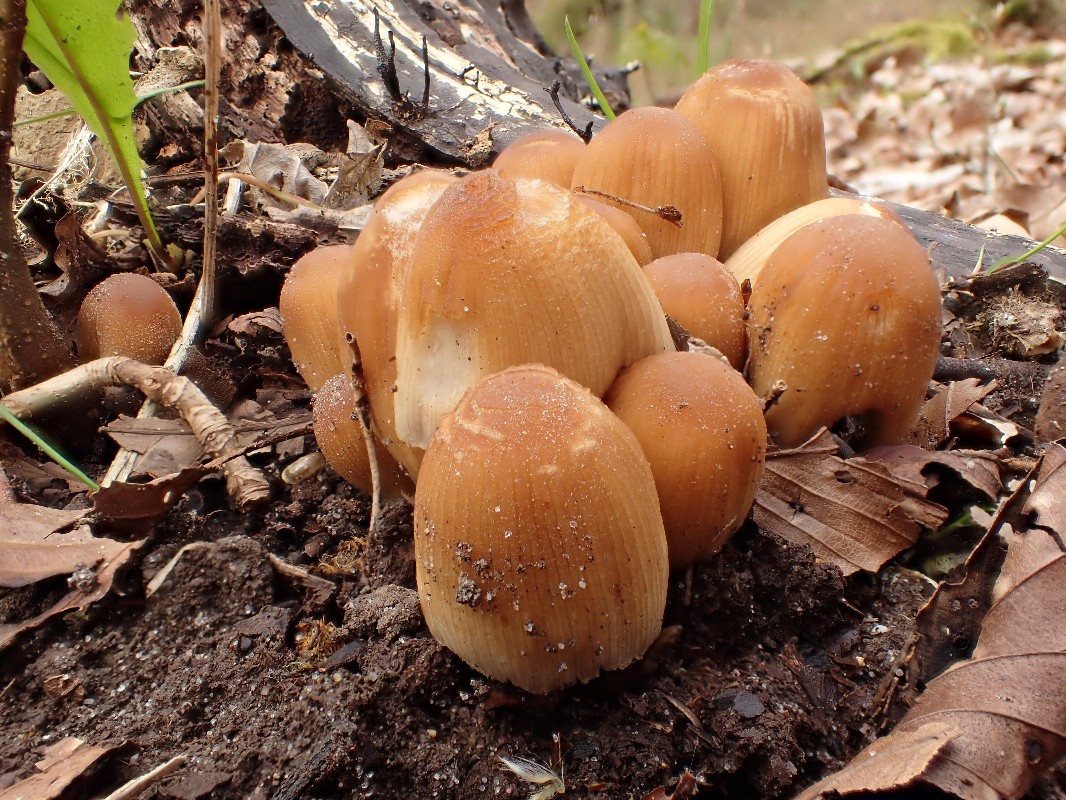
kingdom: Fungi
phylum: Basidiomycota
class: Agaricomycetes
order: Agaricales
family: Psathyrellaceae
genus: Coprinellus
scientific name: Coprinellus micaceus
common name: glimmer-blækhat
